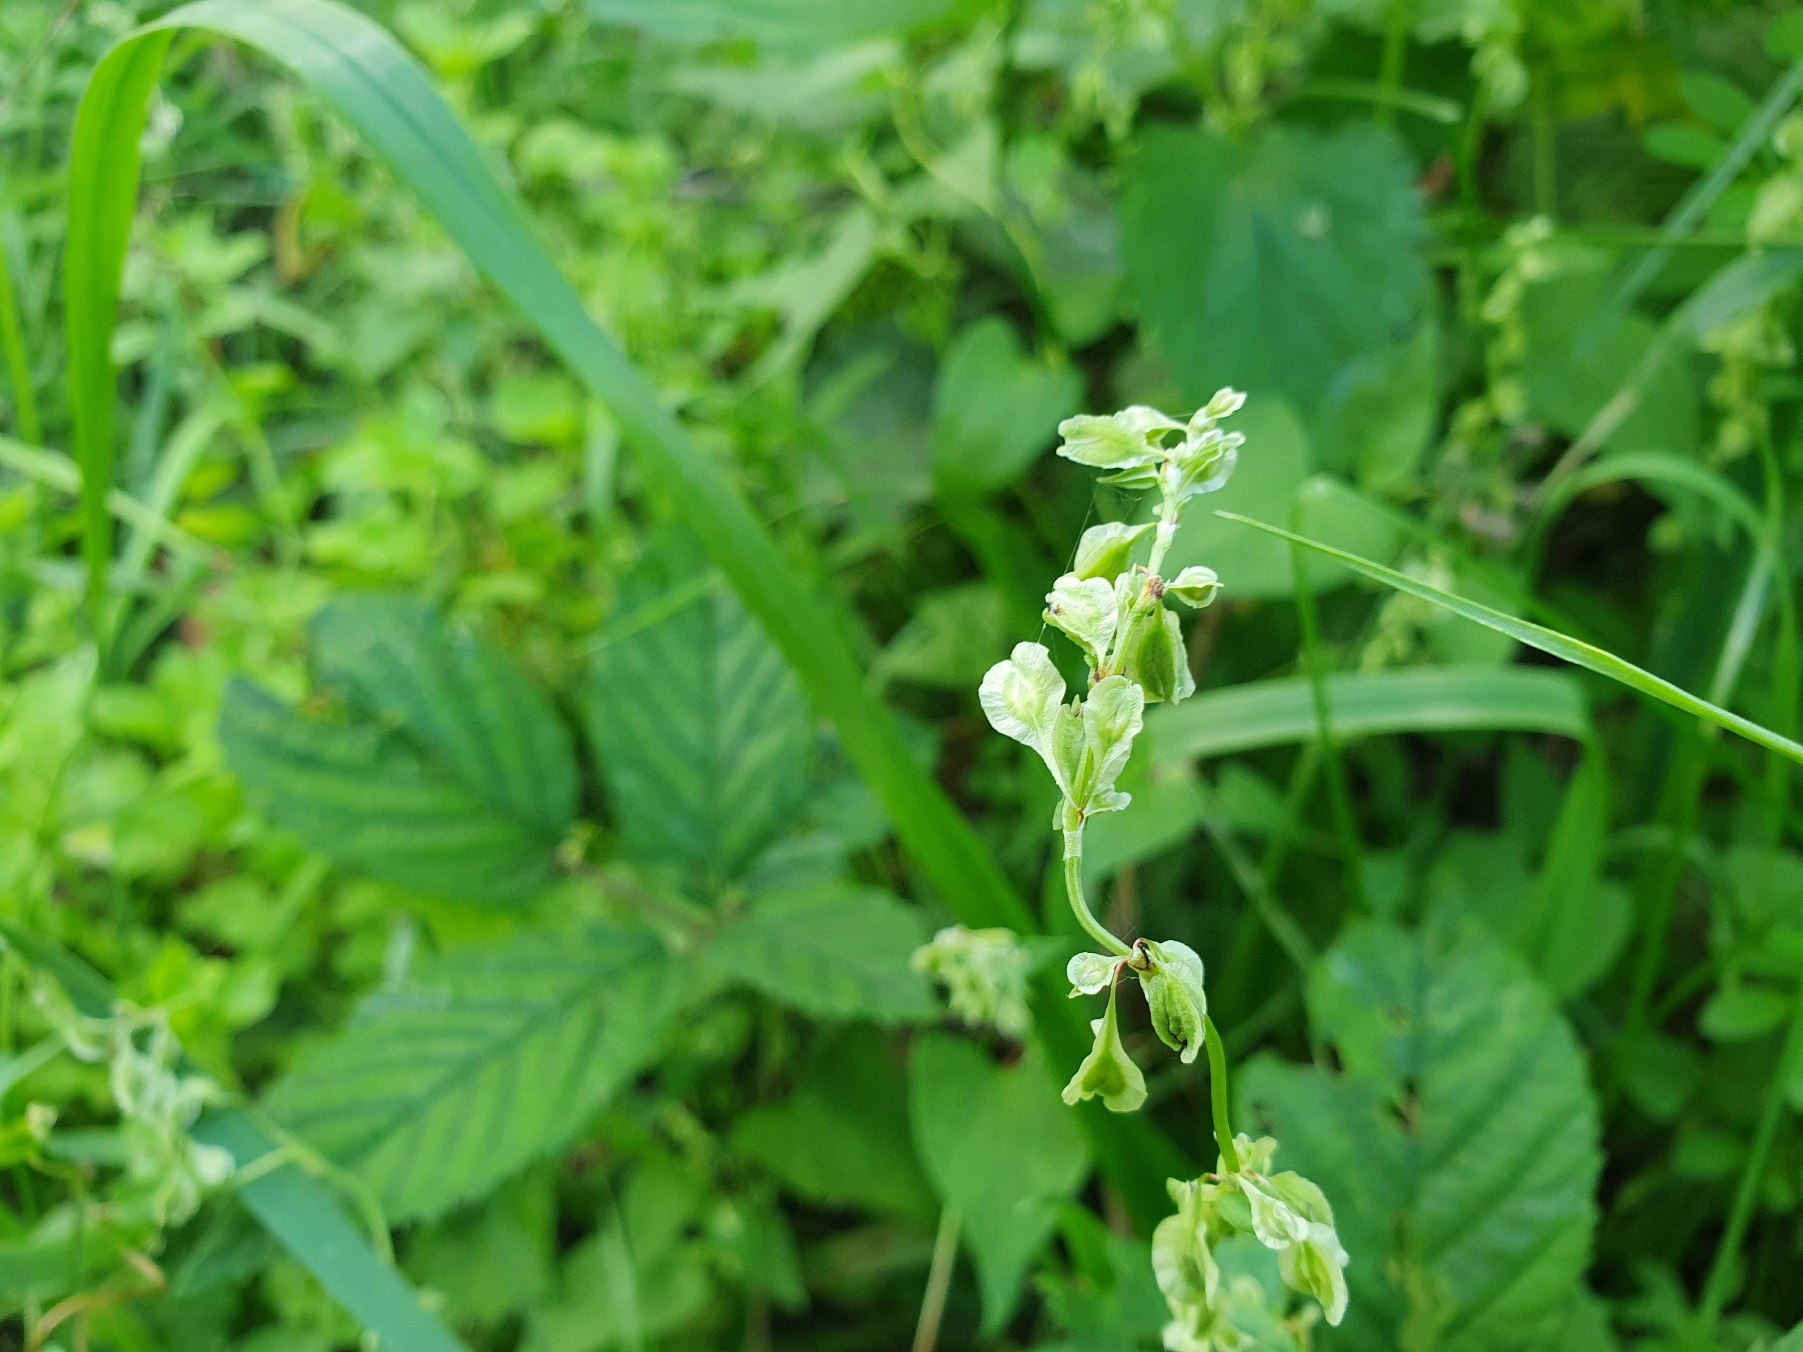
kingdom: Plantae
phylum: Tracheophyta
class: Magnoliopsida
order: Caryophyllales
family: Polygonaceae
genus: Fallopia
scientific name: Fallopia dumetorum
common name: Vinge-pileurt
